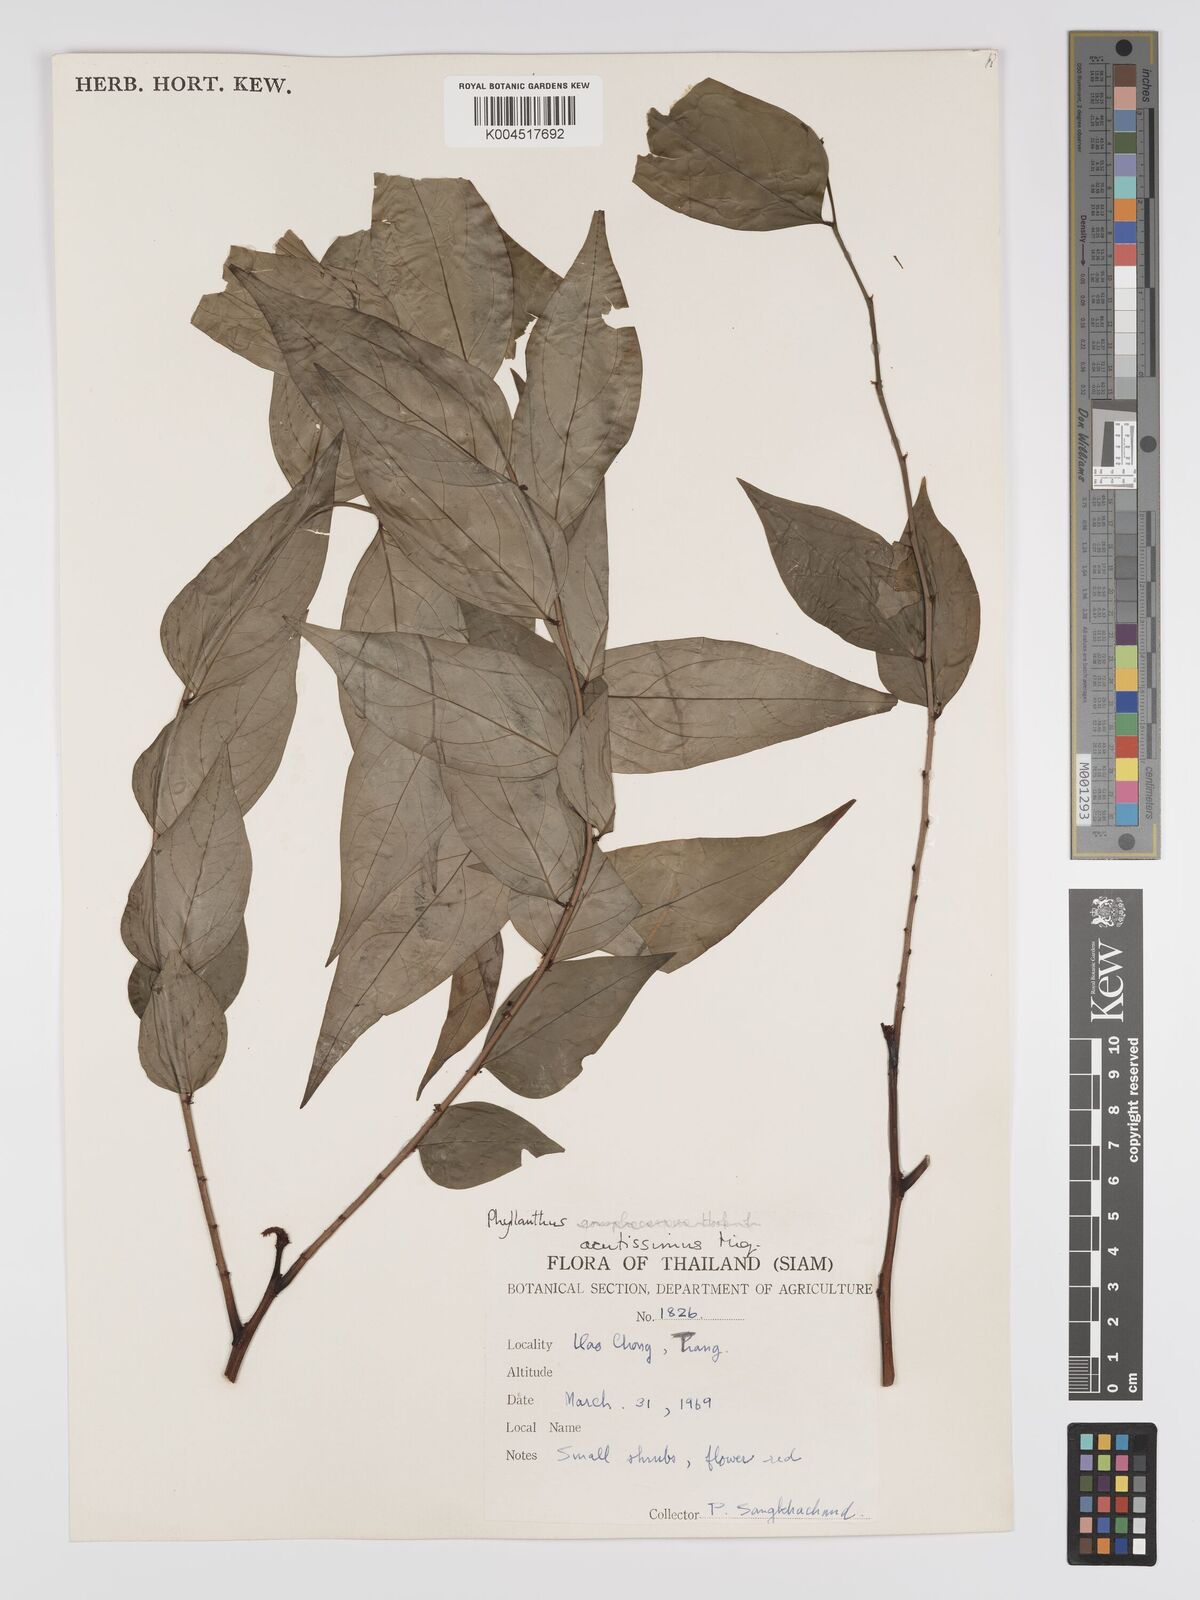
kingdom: Plantae
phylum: Tracheophyta
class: Magnoliopsida
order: Malpighiales
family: Phyllanthaceae
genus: Phyllanthus
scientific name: Phyllanthus acutissimus
